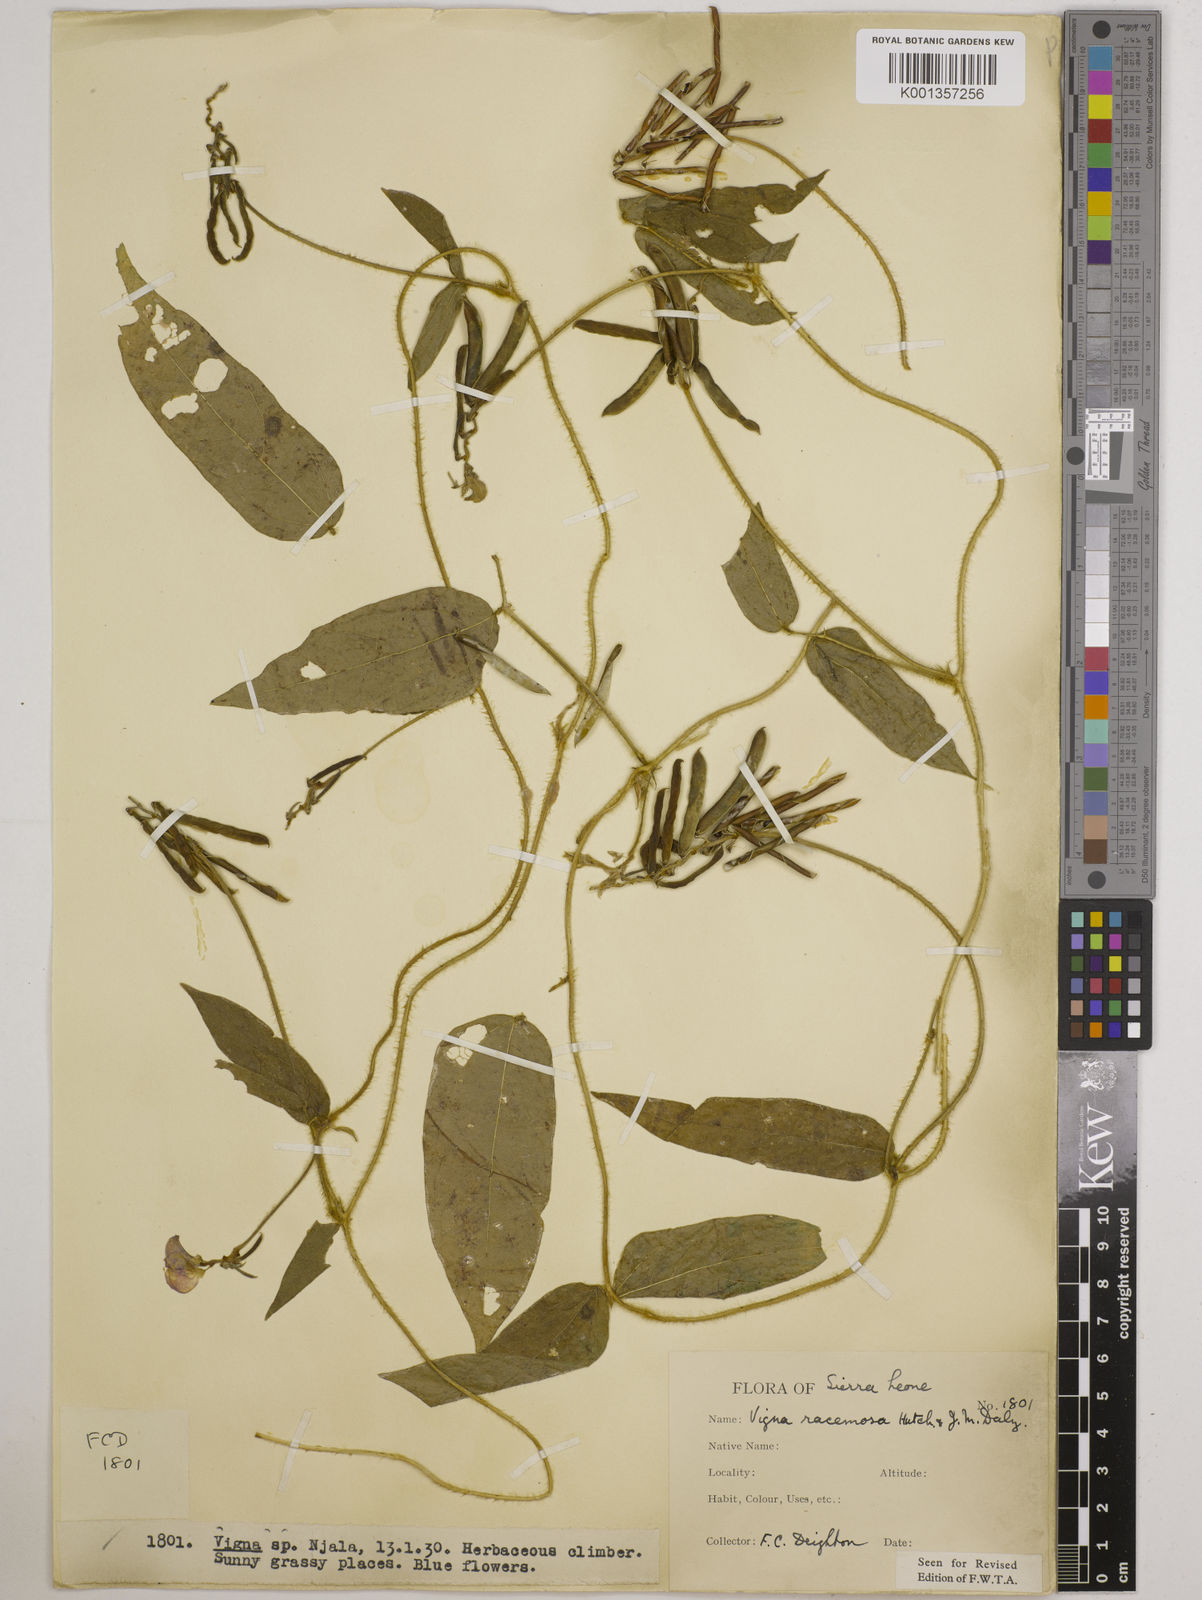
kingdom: Plantae
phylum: Tracheophyta
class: Magnoliopsida
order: Fabales
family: Fabaceae
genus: Vigna
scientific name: Vigna racemosa
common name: Beans not eaten
